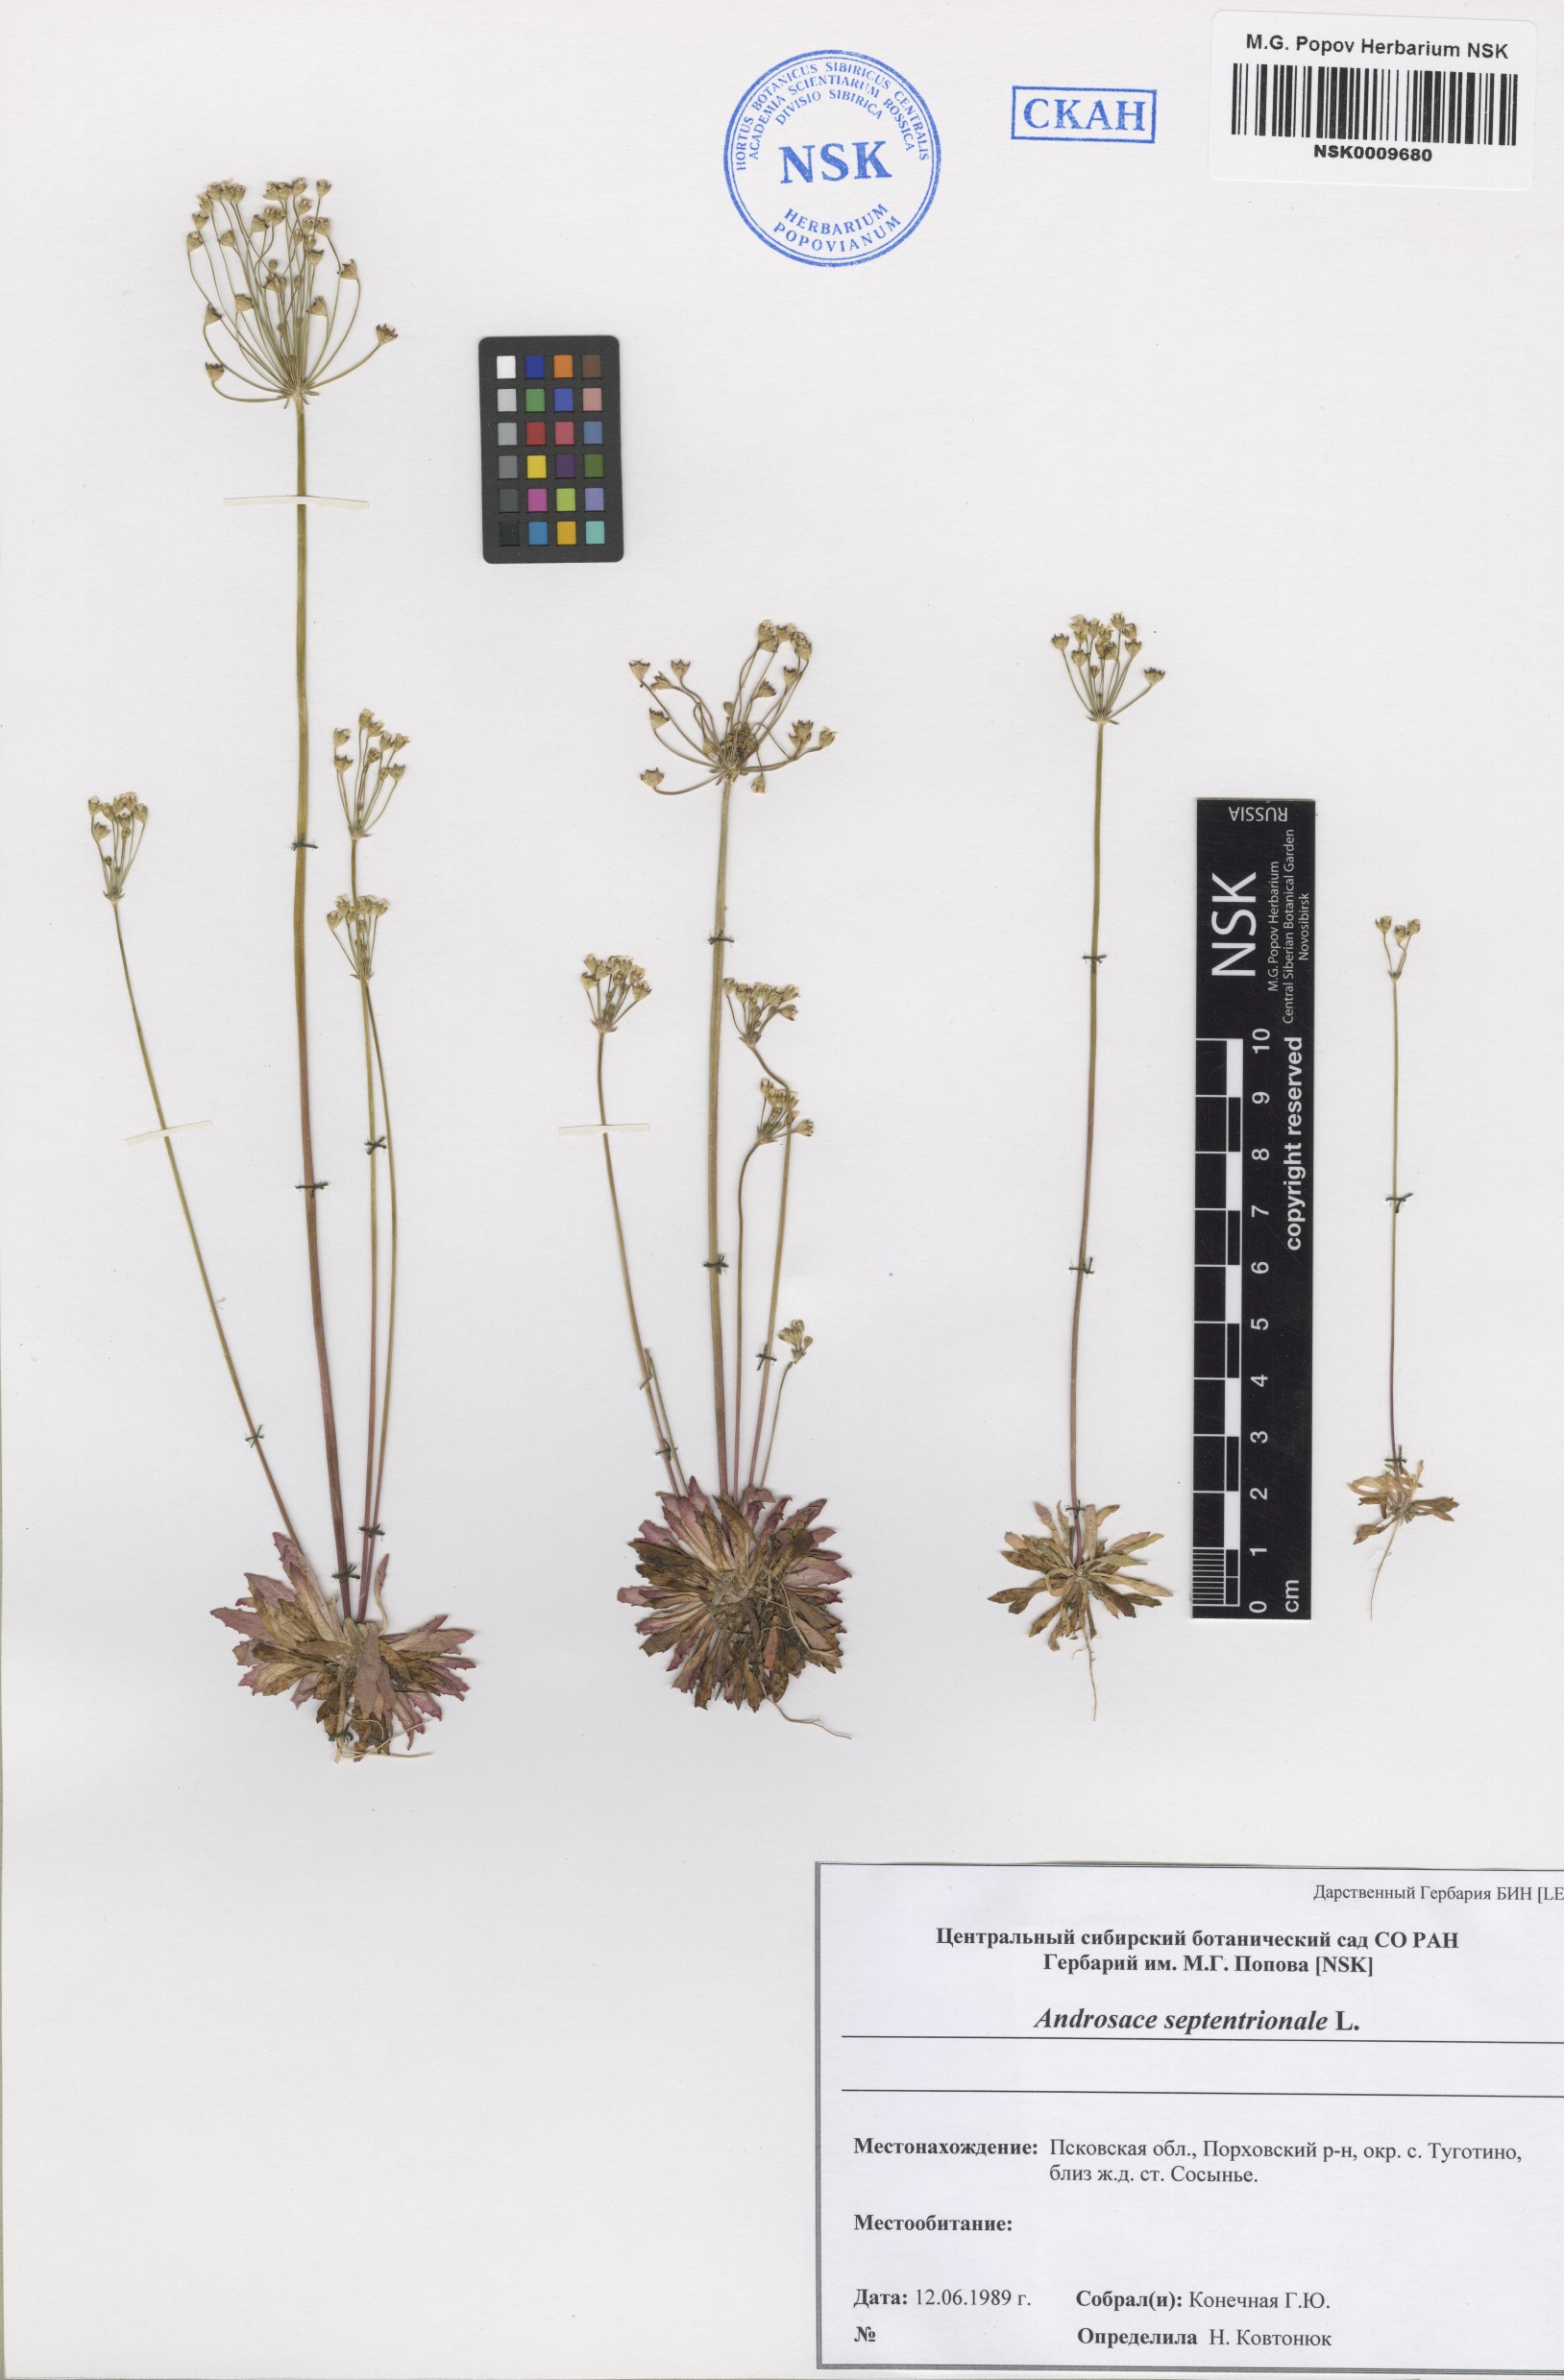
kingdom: Plantae
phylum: Tracheophyta
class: Magnoliopsida
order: Ericales
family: Primulaceae
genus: Androsace
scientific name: Androsace septentrionalis
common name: Hairy northern fairy-candelabra
